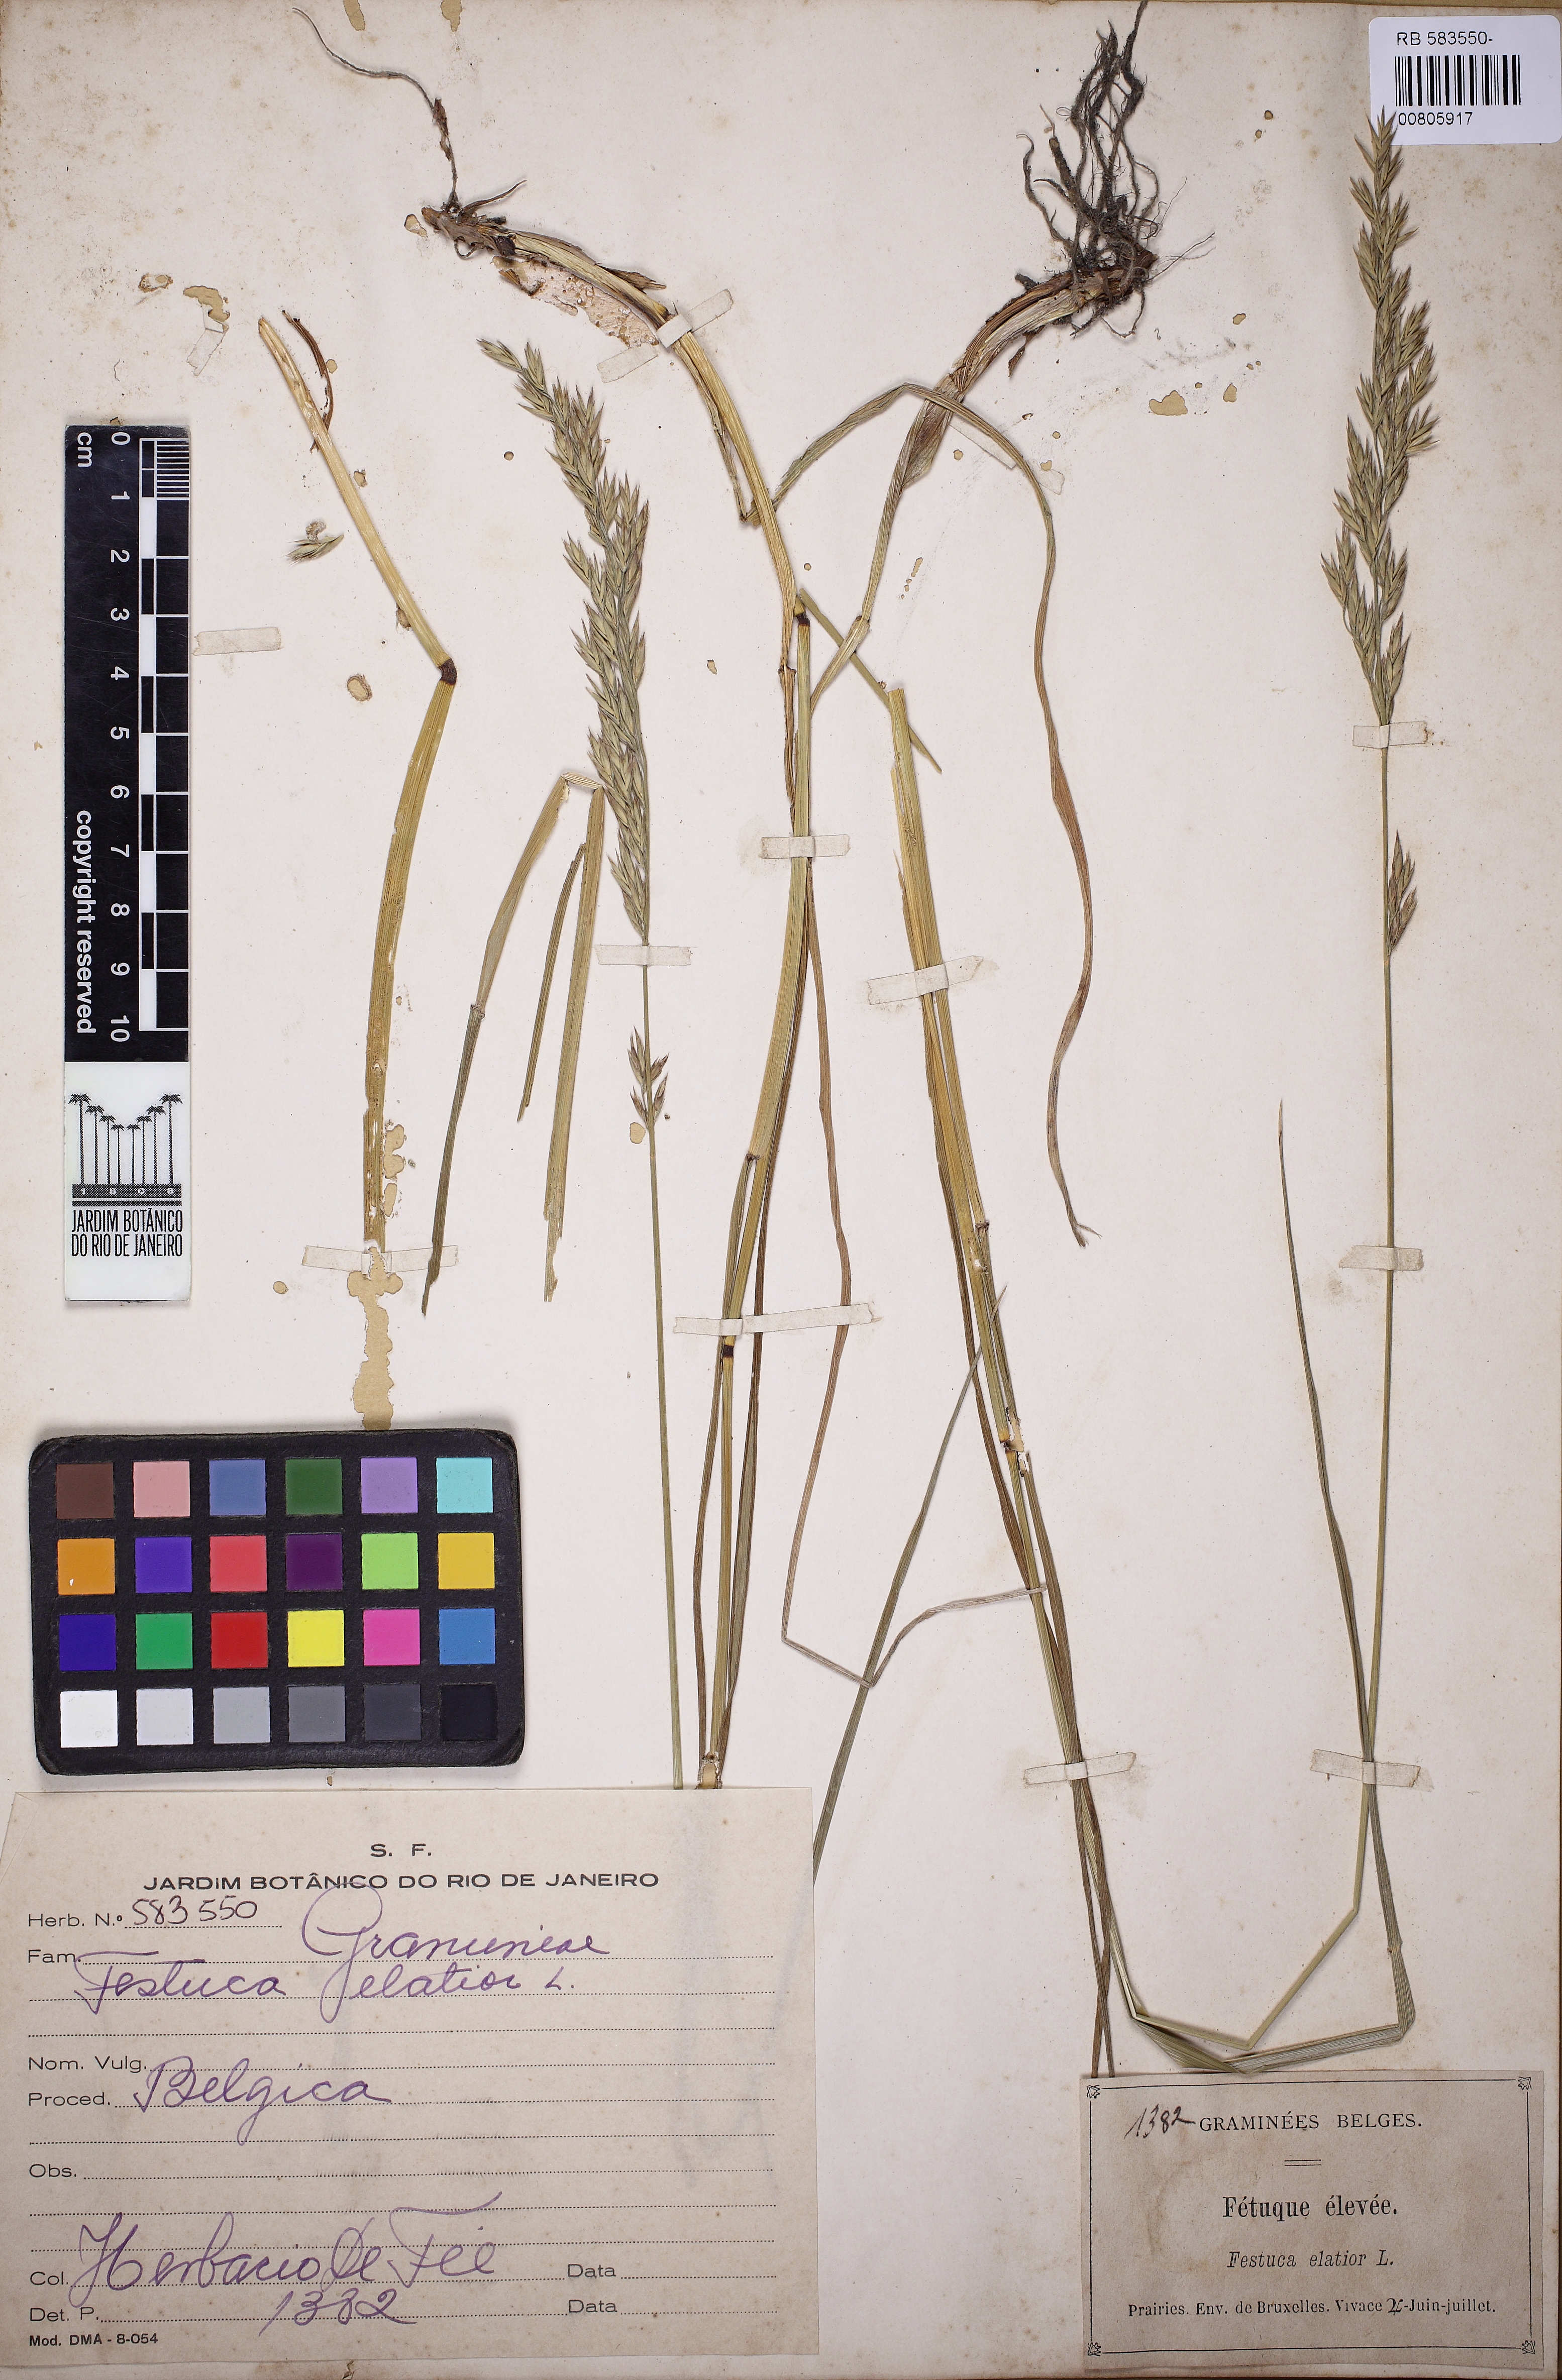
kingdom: Plantae
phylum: Tracheophyta
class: Liliopsida
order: Poales
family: Poaceae
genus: Lolium
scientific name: Lolium arundinaceum
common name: Reed fescue
